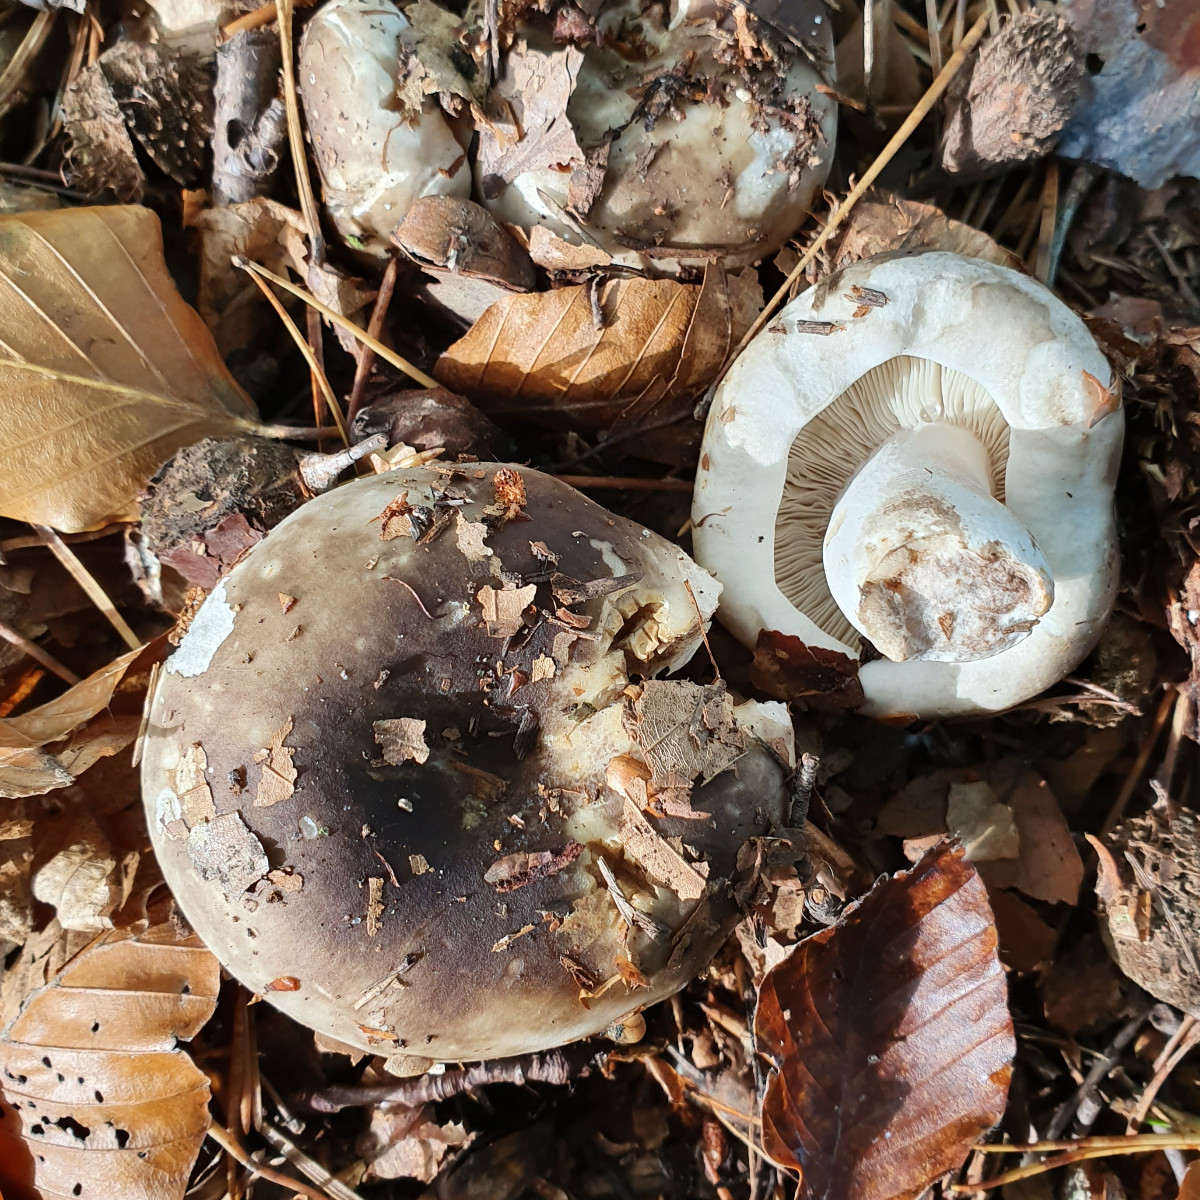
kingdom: Fungi
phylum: Basidiomycota
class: Agaricomycetes
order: Russulales
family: Russulaceae
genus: Russula
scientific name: Russula adusta
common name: sværtende skørhat
